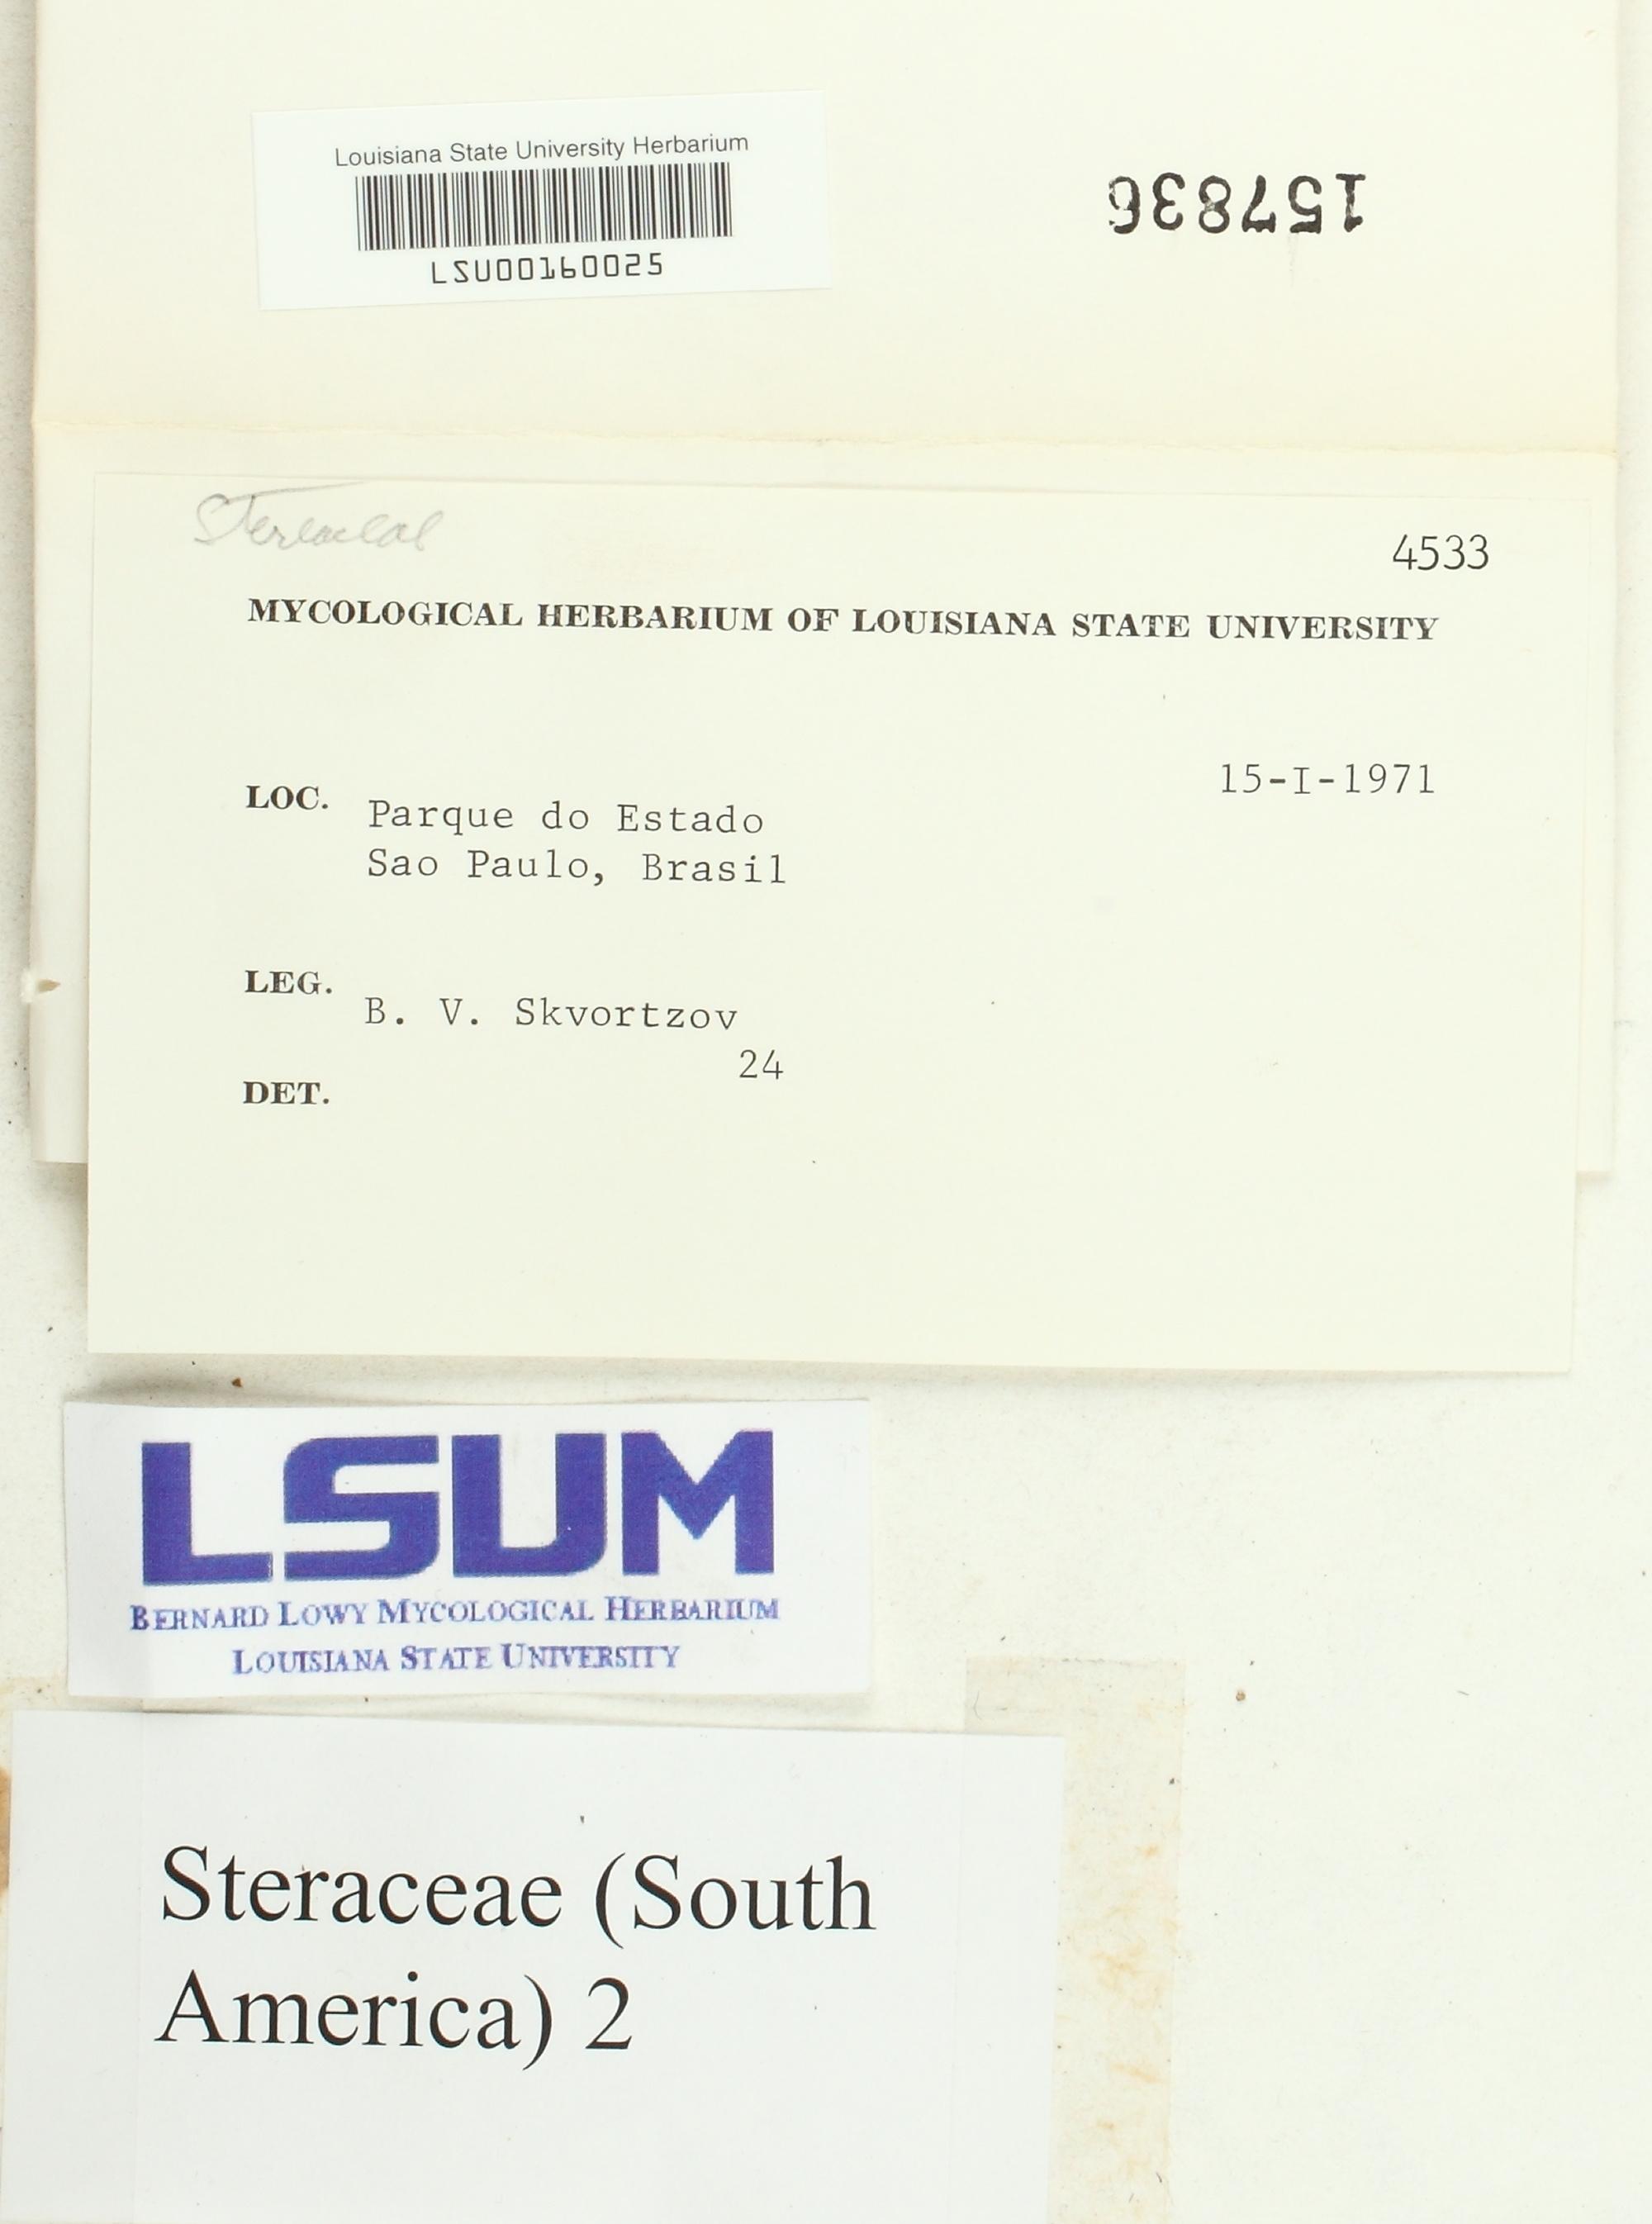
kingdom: Fungi
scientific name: Fungi
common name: Fungi
